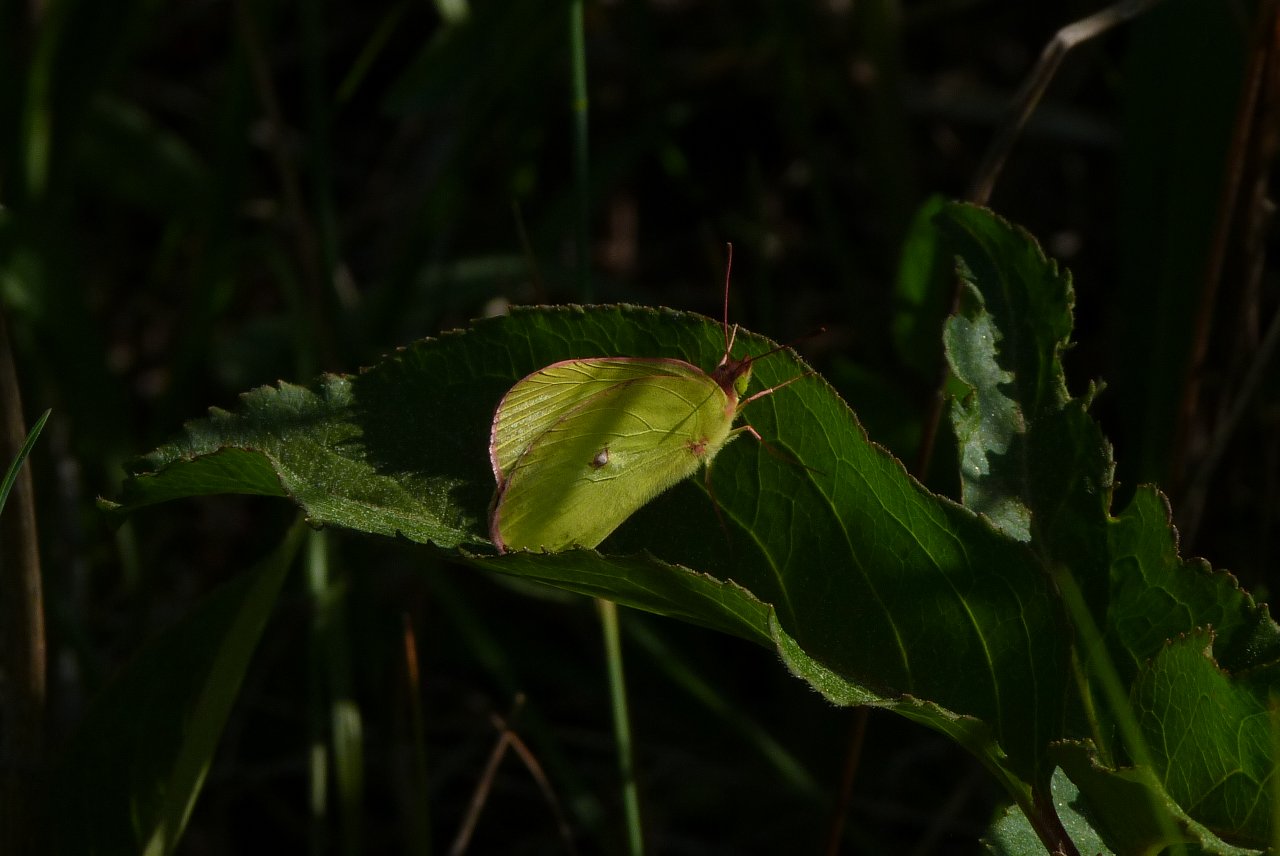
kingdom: Animalia
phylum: Arthropoda
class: Insecta
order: Lepidoptera
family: Pieridae
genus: Colias
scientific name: Colias interior
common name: Pink-edged Sulphur
